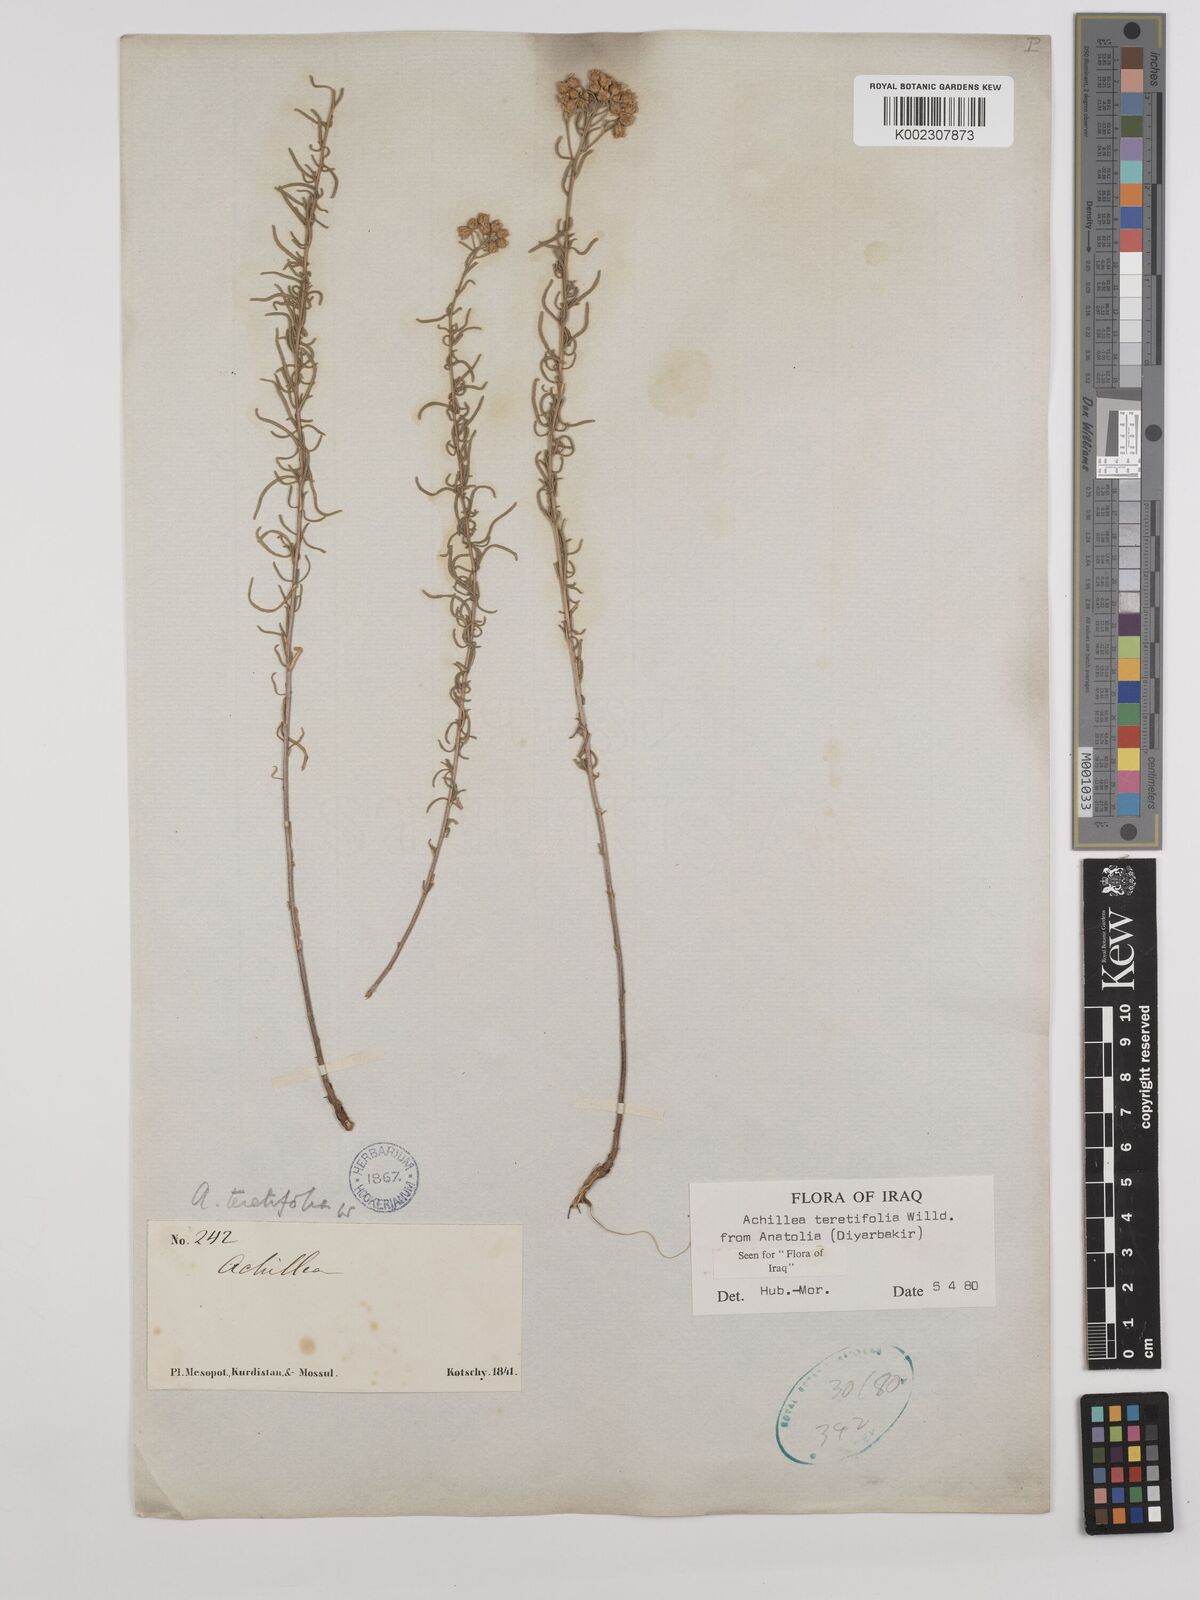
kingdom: Plantae
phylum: Tracheophyta
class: Magnoliopsida
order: Asterales
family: Asteraceae
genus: Achillea
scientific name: Achillea wilhelmsii
